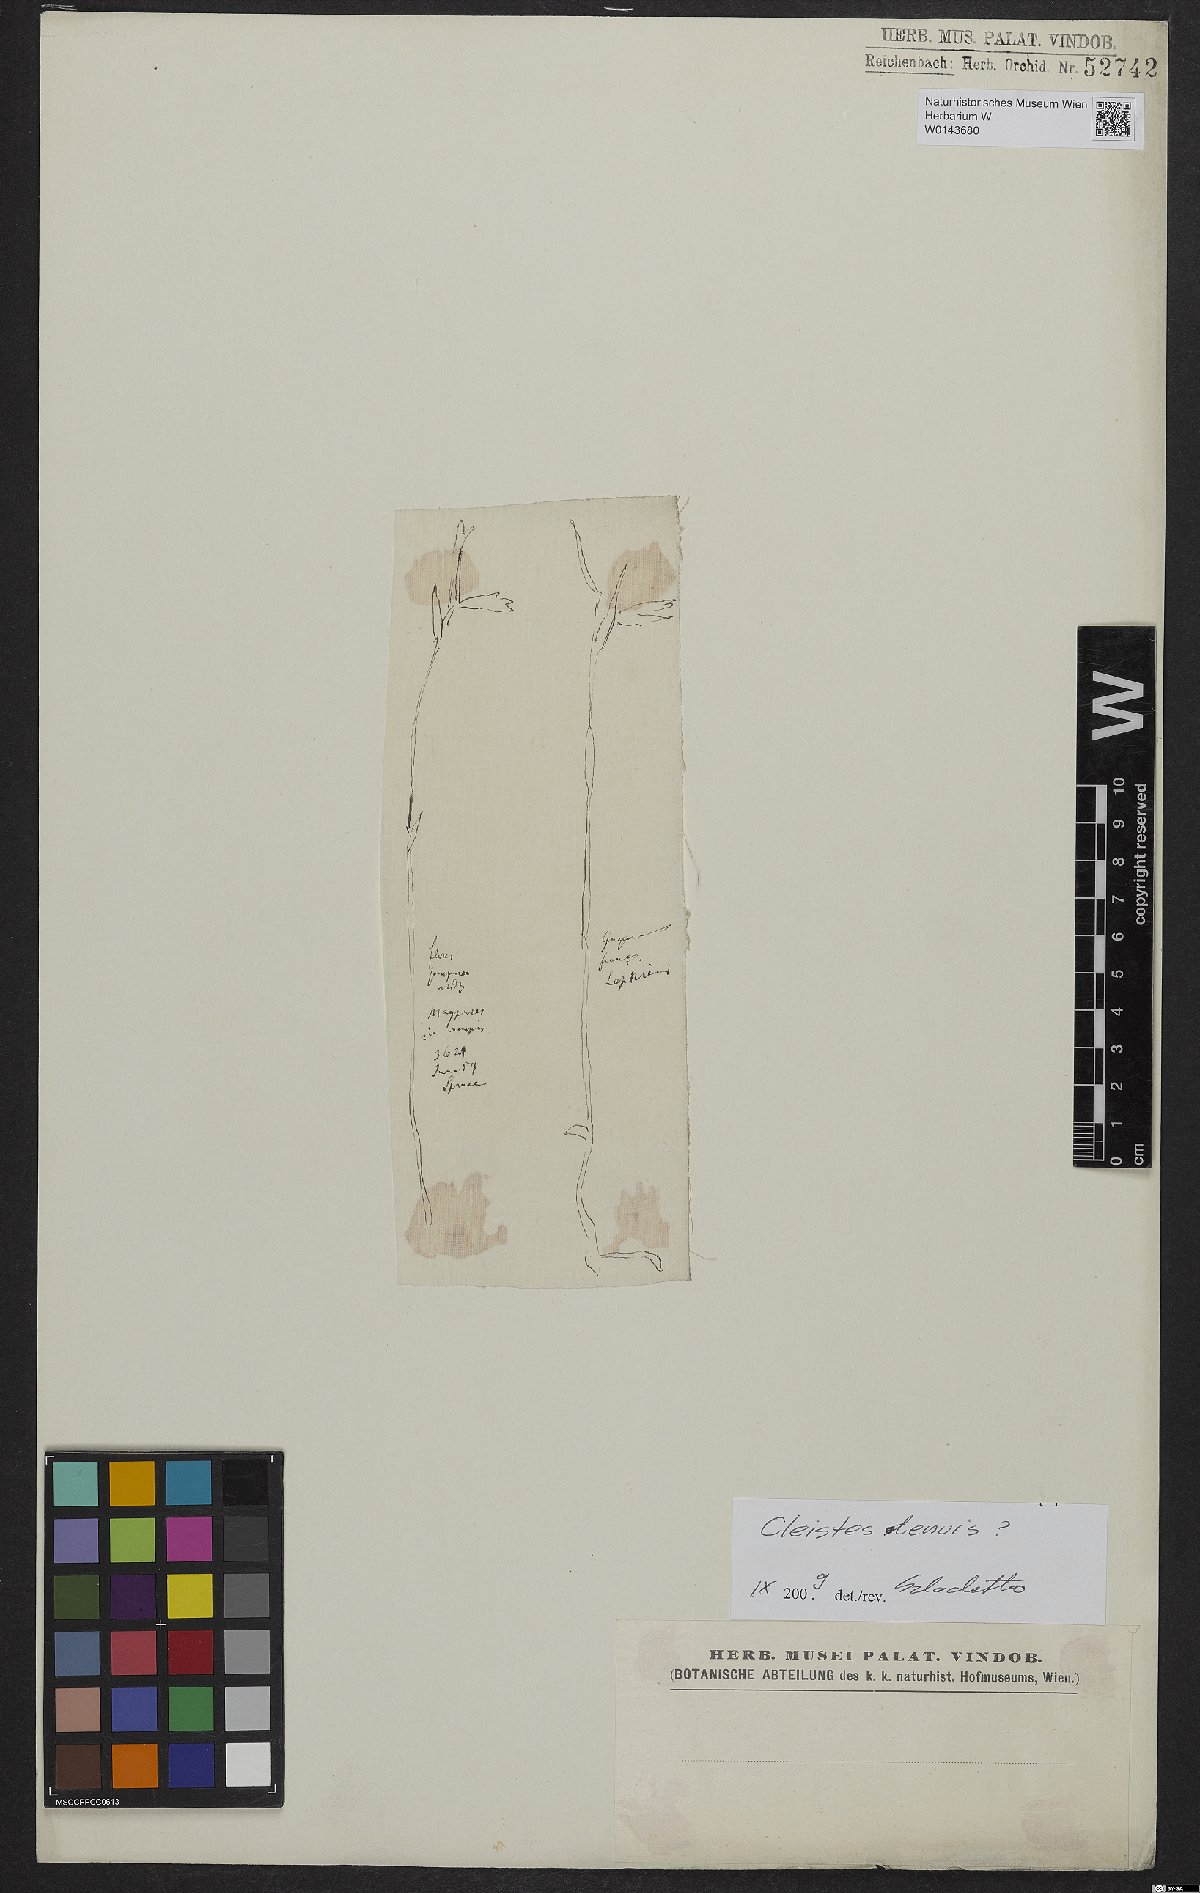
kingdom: Plantae
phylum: Tracheophyta
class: Liliopsida
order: Asparagales
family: Orchidaceae
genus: Cleistes
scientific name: Cleistes tenuis
